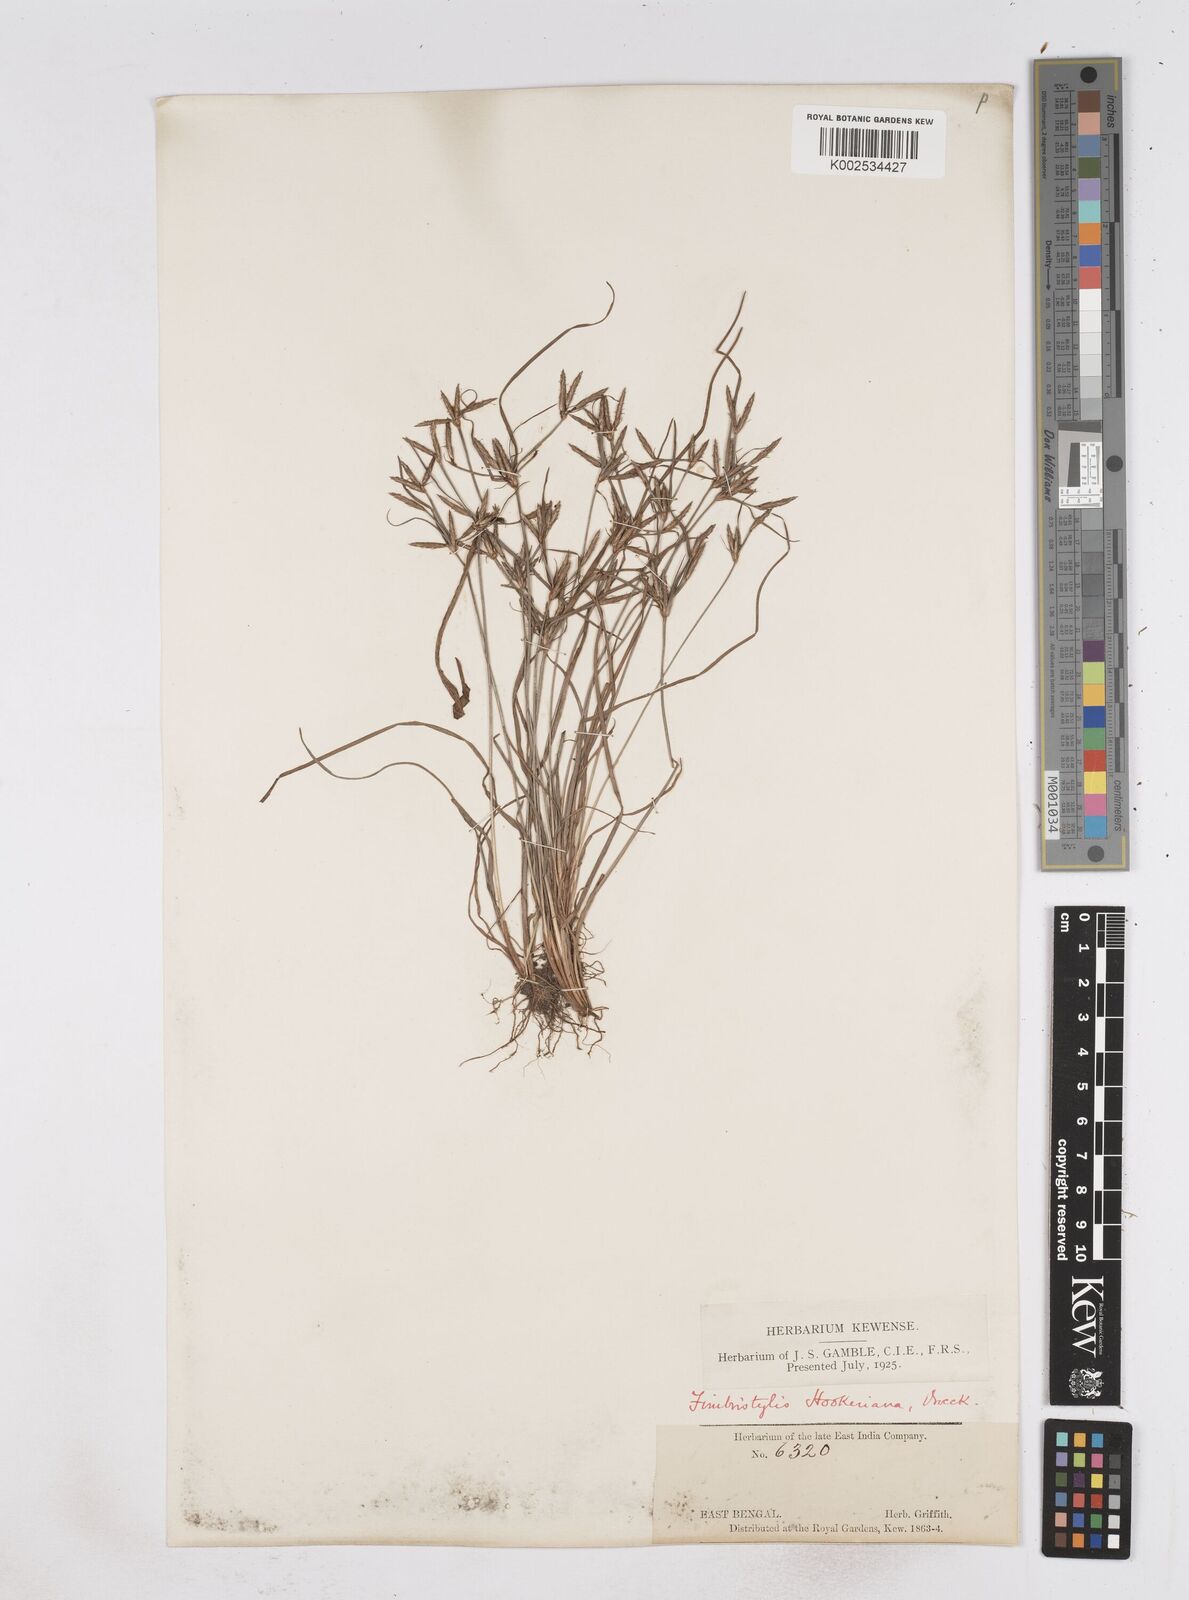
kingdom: Plantae
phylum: Tracheophyta
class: Liliopsida
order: Poales
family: Cyperaceae
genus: Fimbristylis
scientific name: Fimbristylis hookeriana
